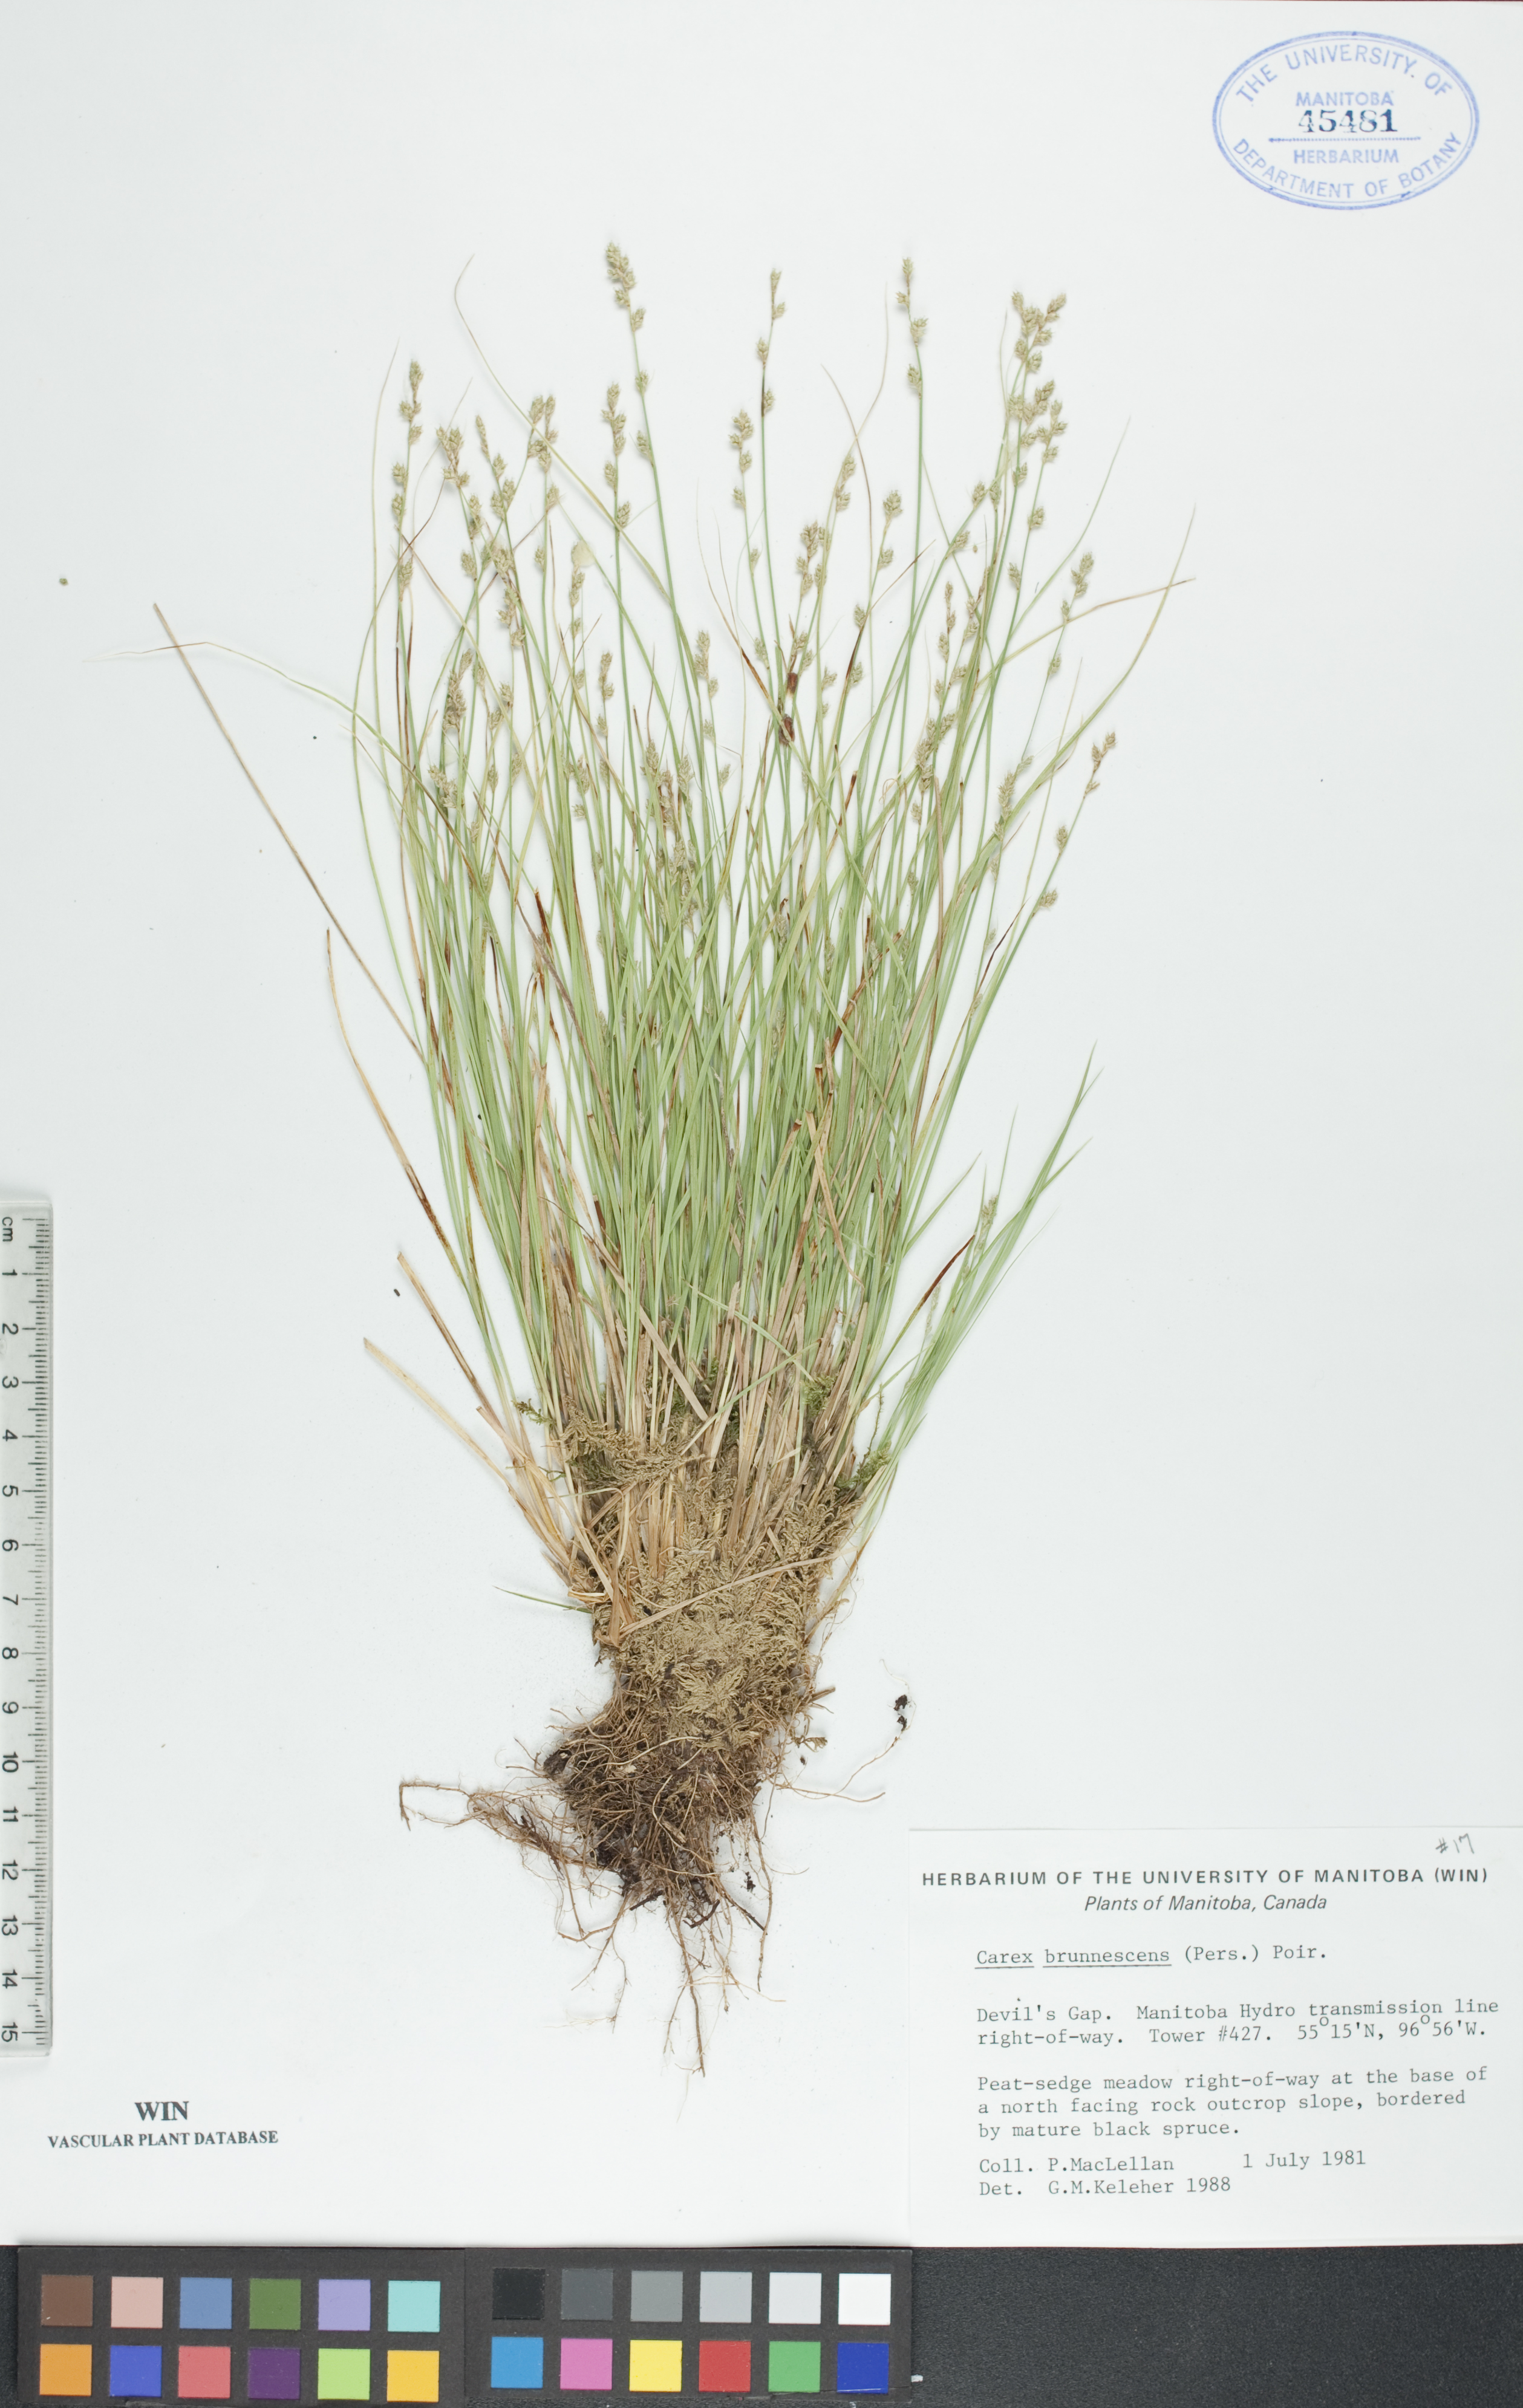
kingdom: Plantae
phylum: Tracheophyta
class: Liliopsida
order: Poales
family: Cyperaceae
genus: Carex
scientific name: Carex brunnescens
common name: Brown sedge
